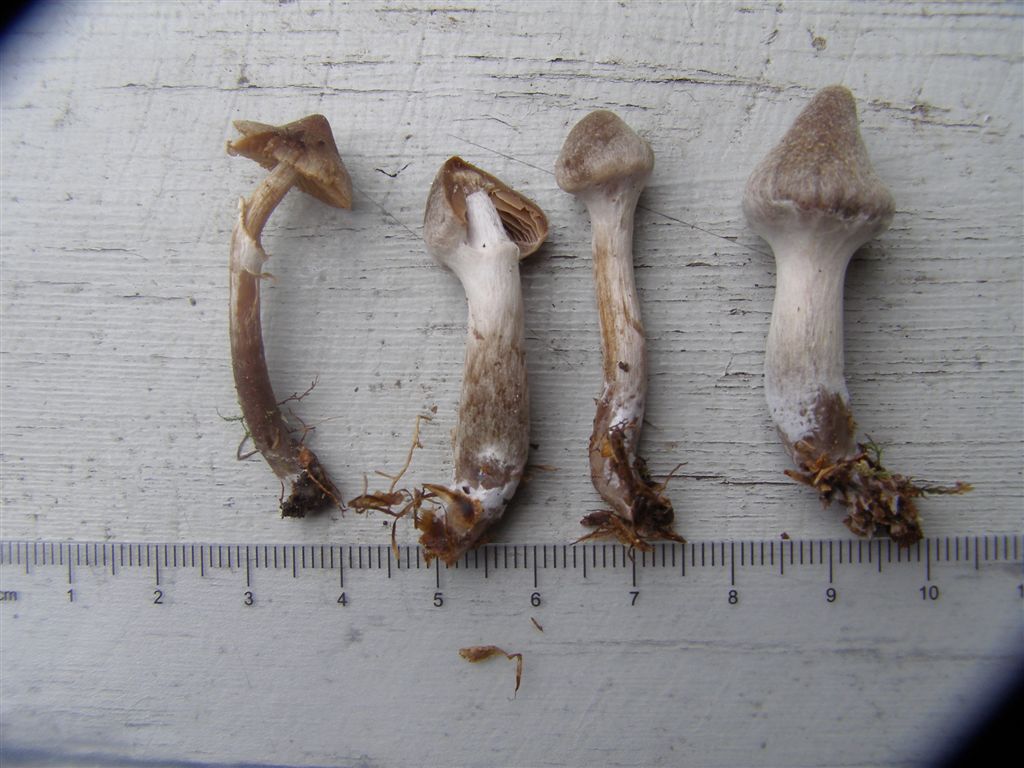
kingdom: Fungi
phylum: Basidiomycota
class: Agaricomycetes
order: Agaricales
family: Cortinariaceae
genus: Cortinarius
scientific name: Cortinarius hemitrichus
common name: hvidfnugget slørhat
